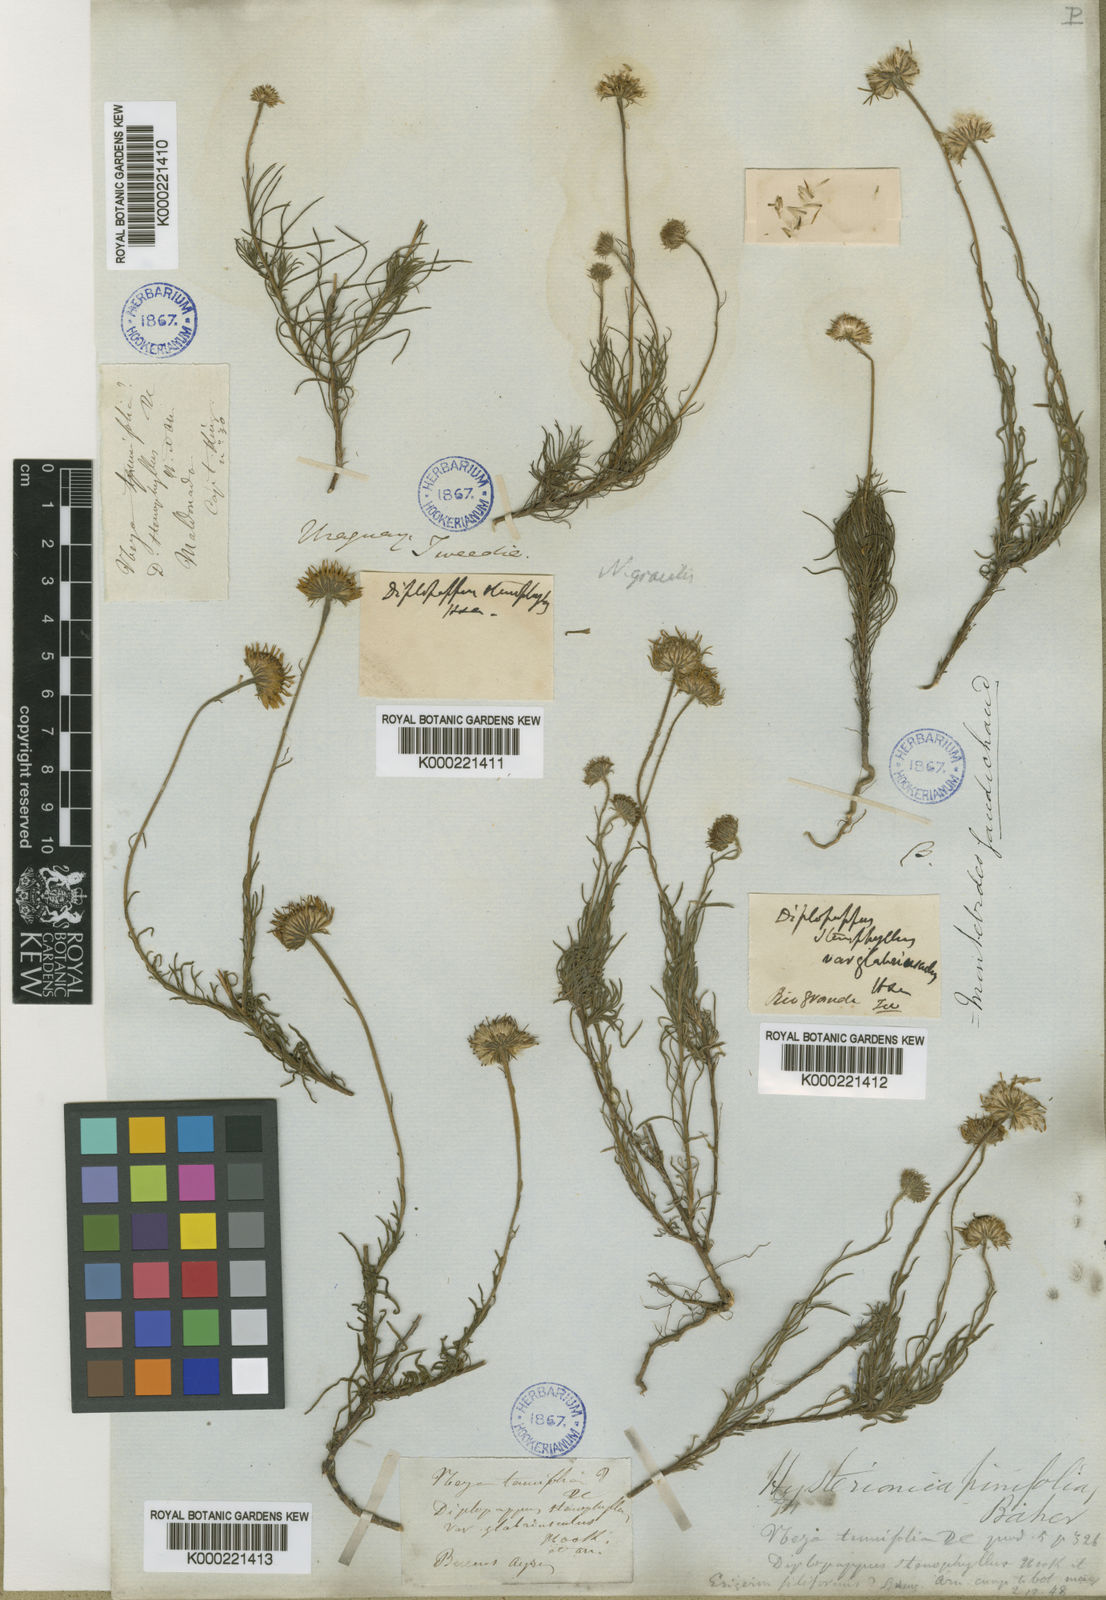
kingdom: Plantae
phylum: Tracheophyta
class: Magnoliopsida
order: Asterales
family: Asteraceae
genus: Neja
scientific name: Neja pinifolia
